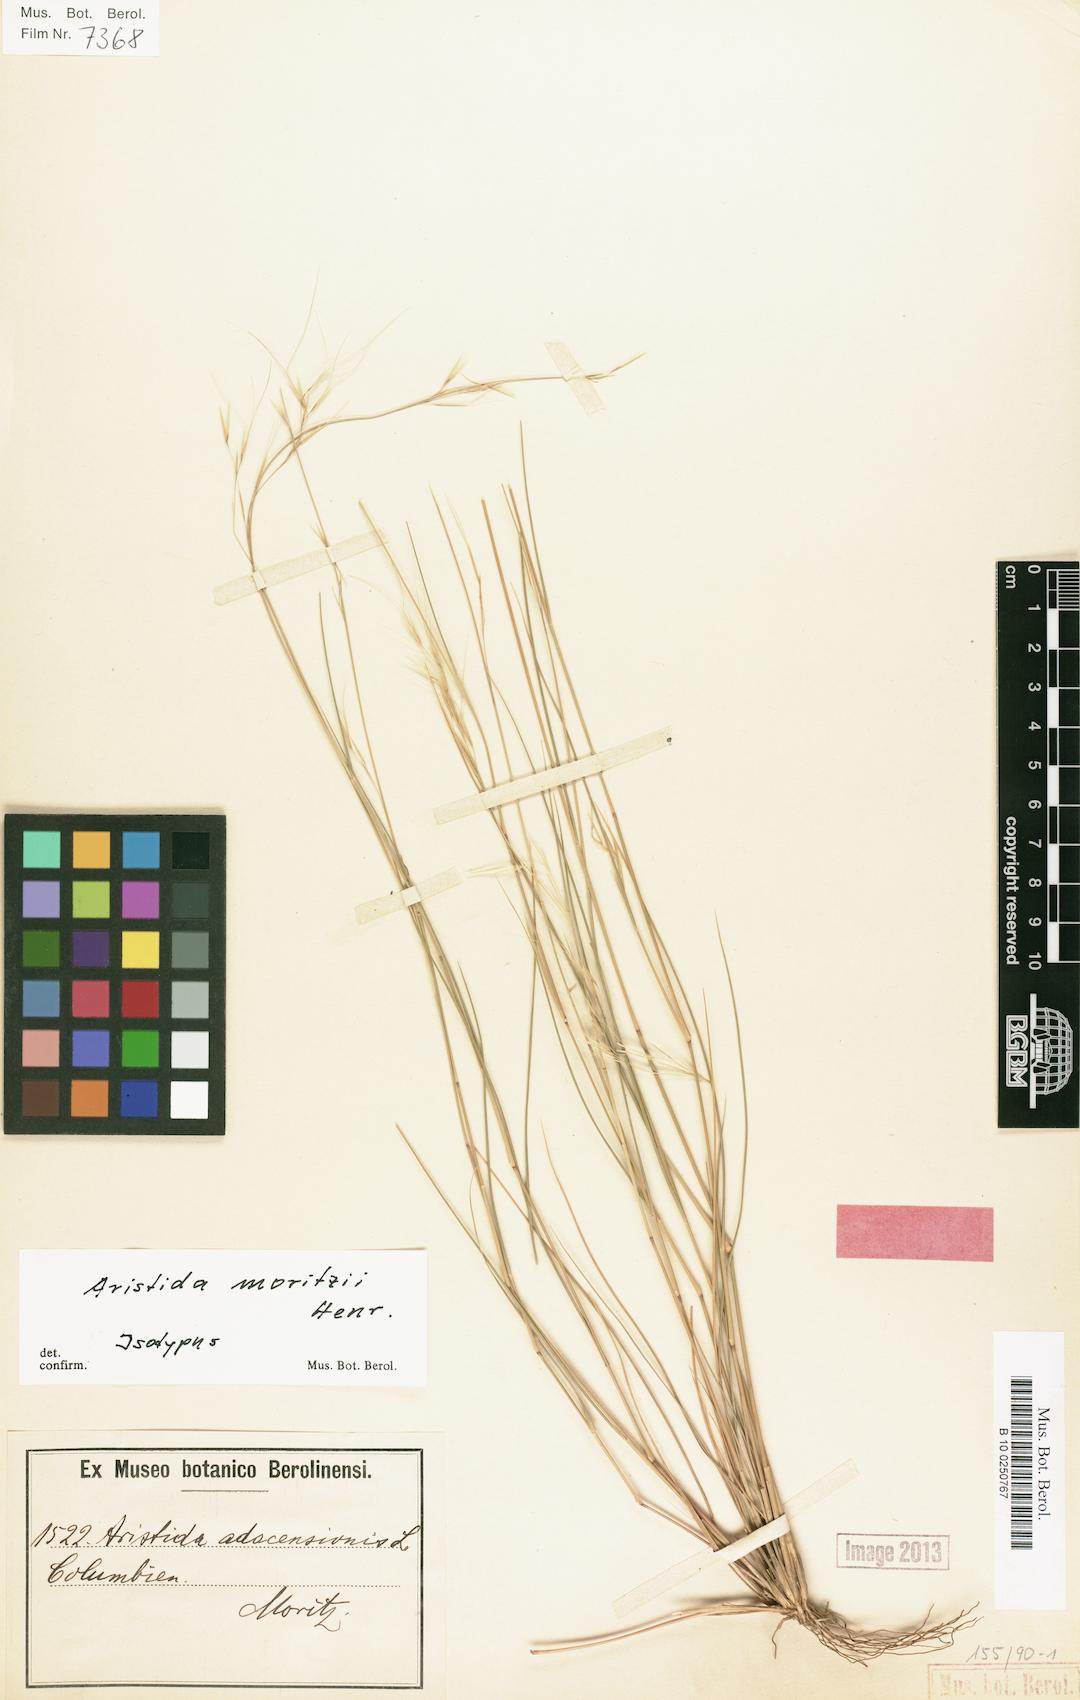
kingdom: Plantae
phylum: Tracheophyta
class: Liliopsida
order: Poales
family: Poaceae
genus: Aristida
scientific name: Aristida moritzii
